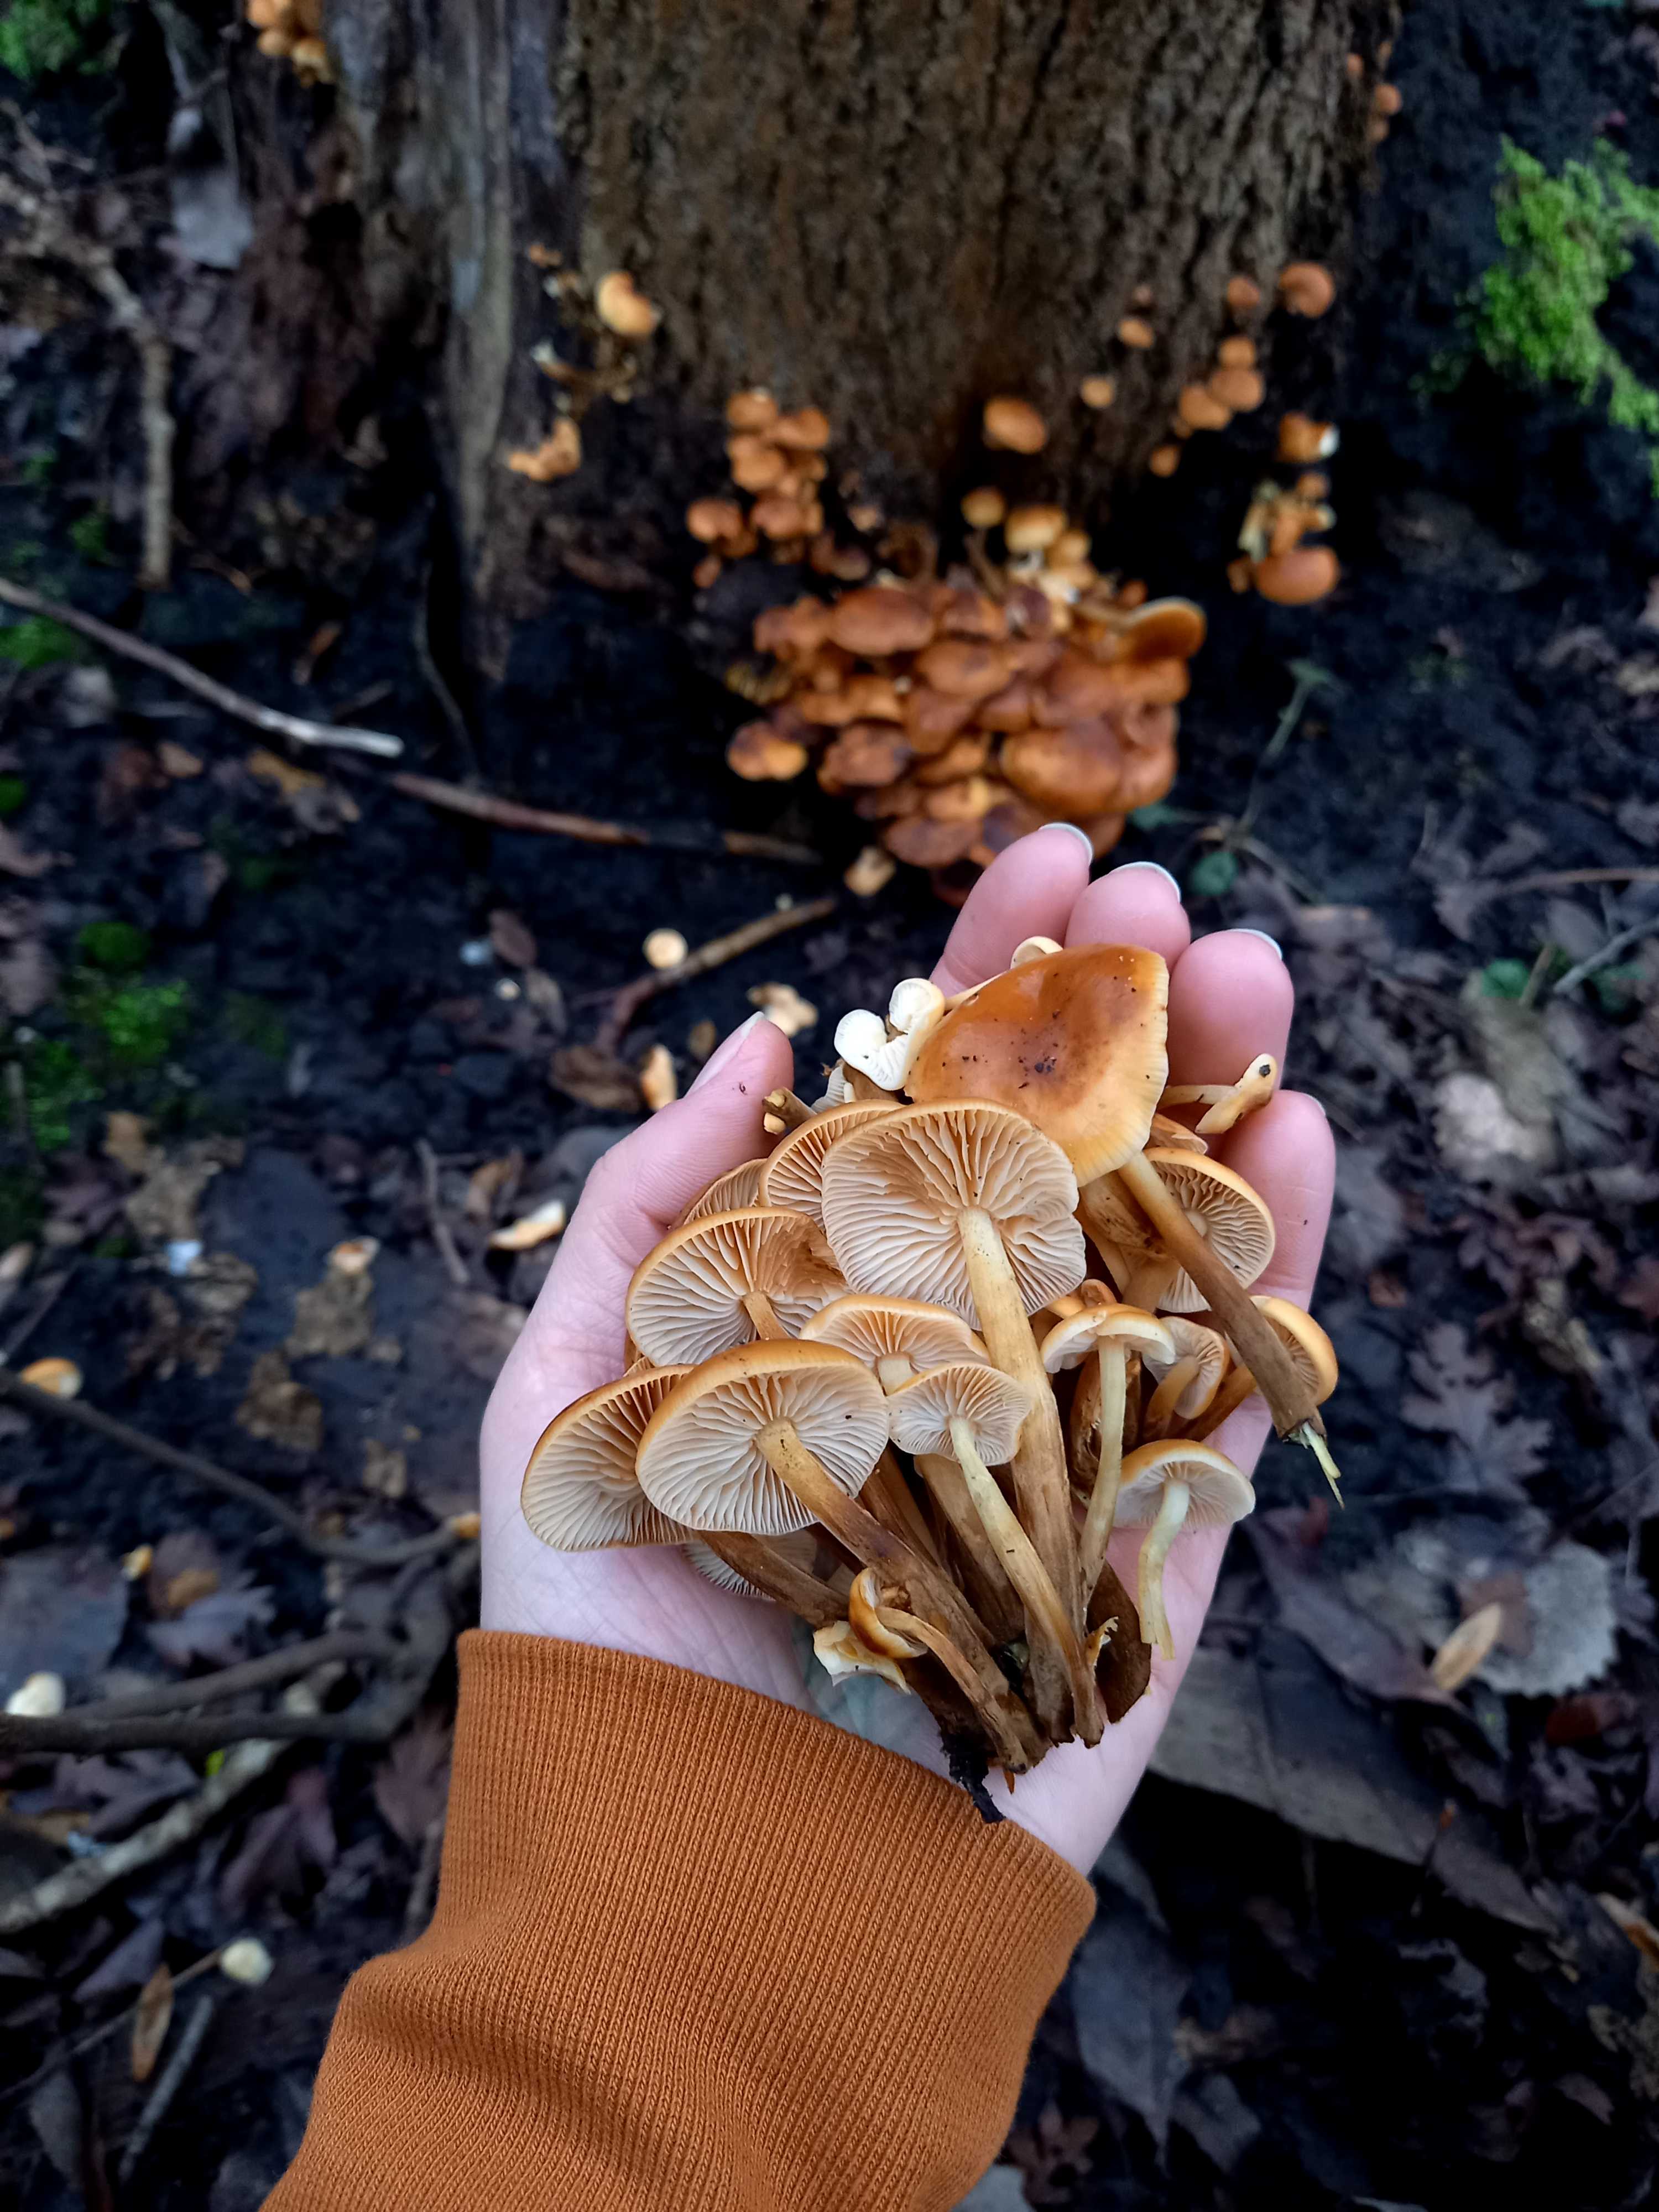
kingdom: Fungi
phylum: Basidiomycota
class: Agaricomycetes
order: Agaricales
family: Physalacriaceae
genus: Flammulina
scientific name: Flammulina
